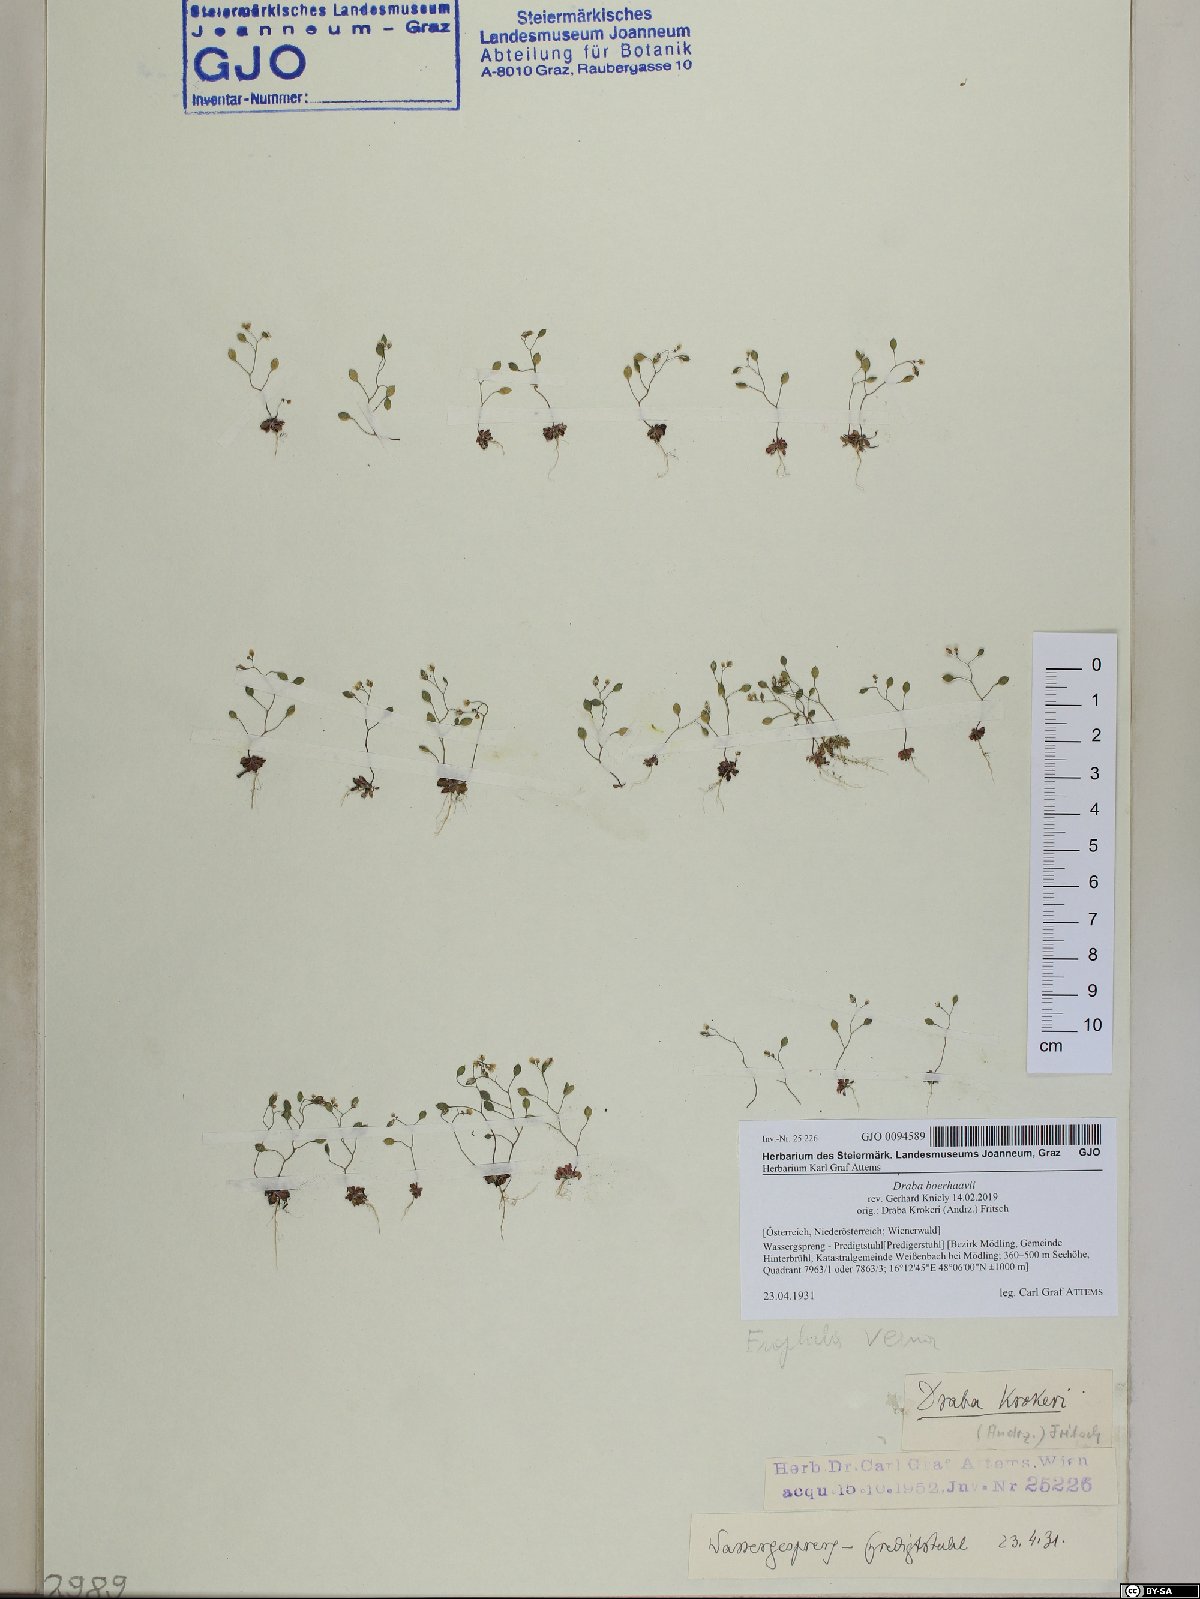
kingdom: Plantae
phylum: Tracheophyta
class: Magnoliopsida
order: Brassicales
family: Brassicaceae
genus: Draba
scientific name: Draba verna
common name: Spring draba
